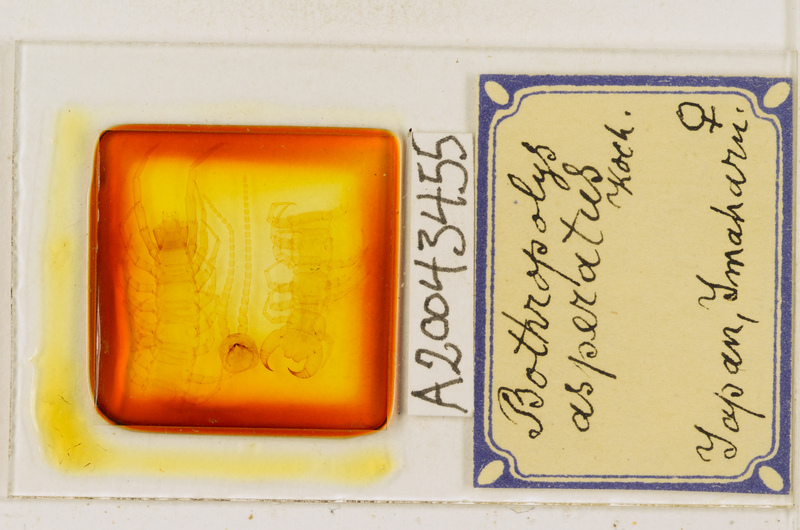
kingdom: Animalia
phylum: Arthropoda
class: Chilopoda
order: Lithobiomorpha
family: Lithobiidae
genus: Bothropolys
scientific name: Bothropolys rugosus
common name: Centipede
